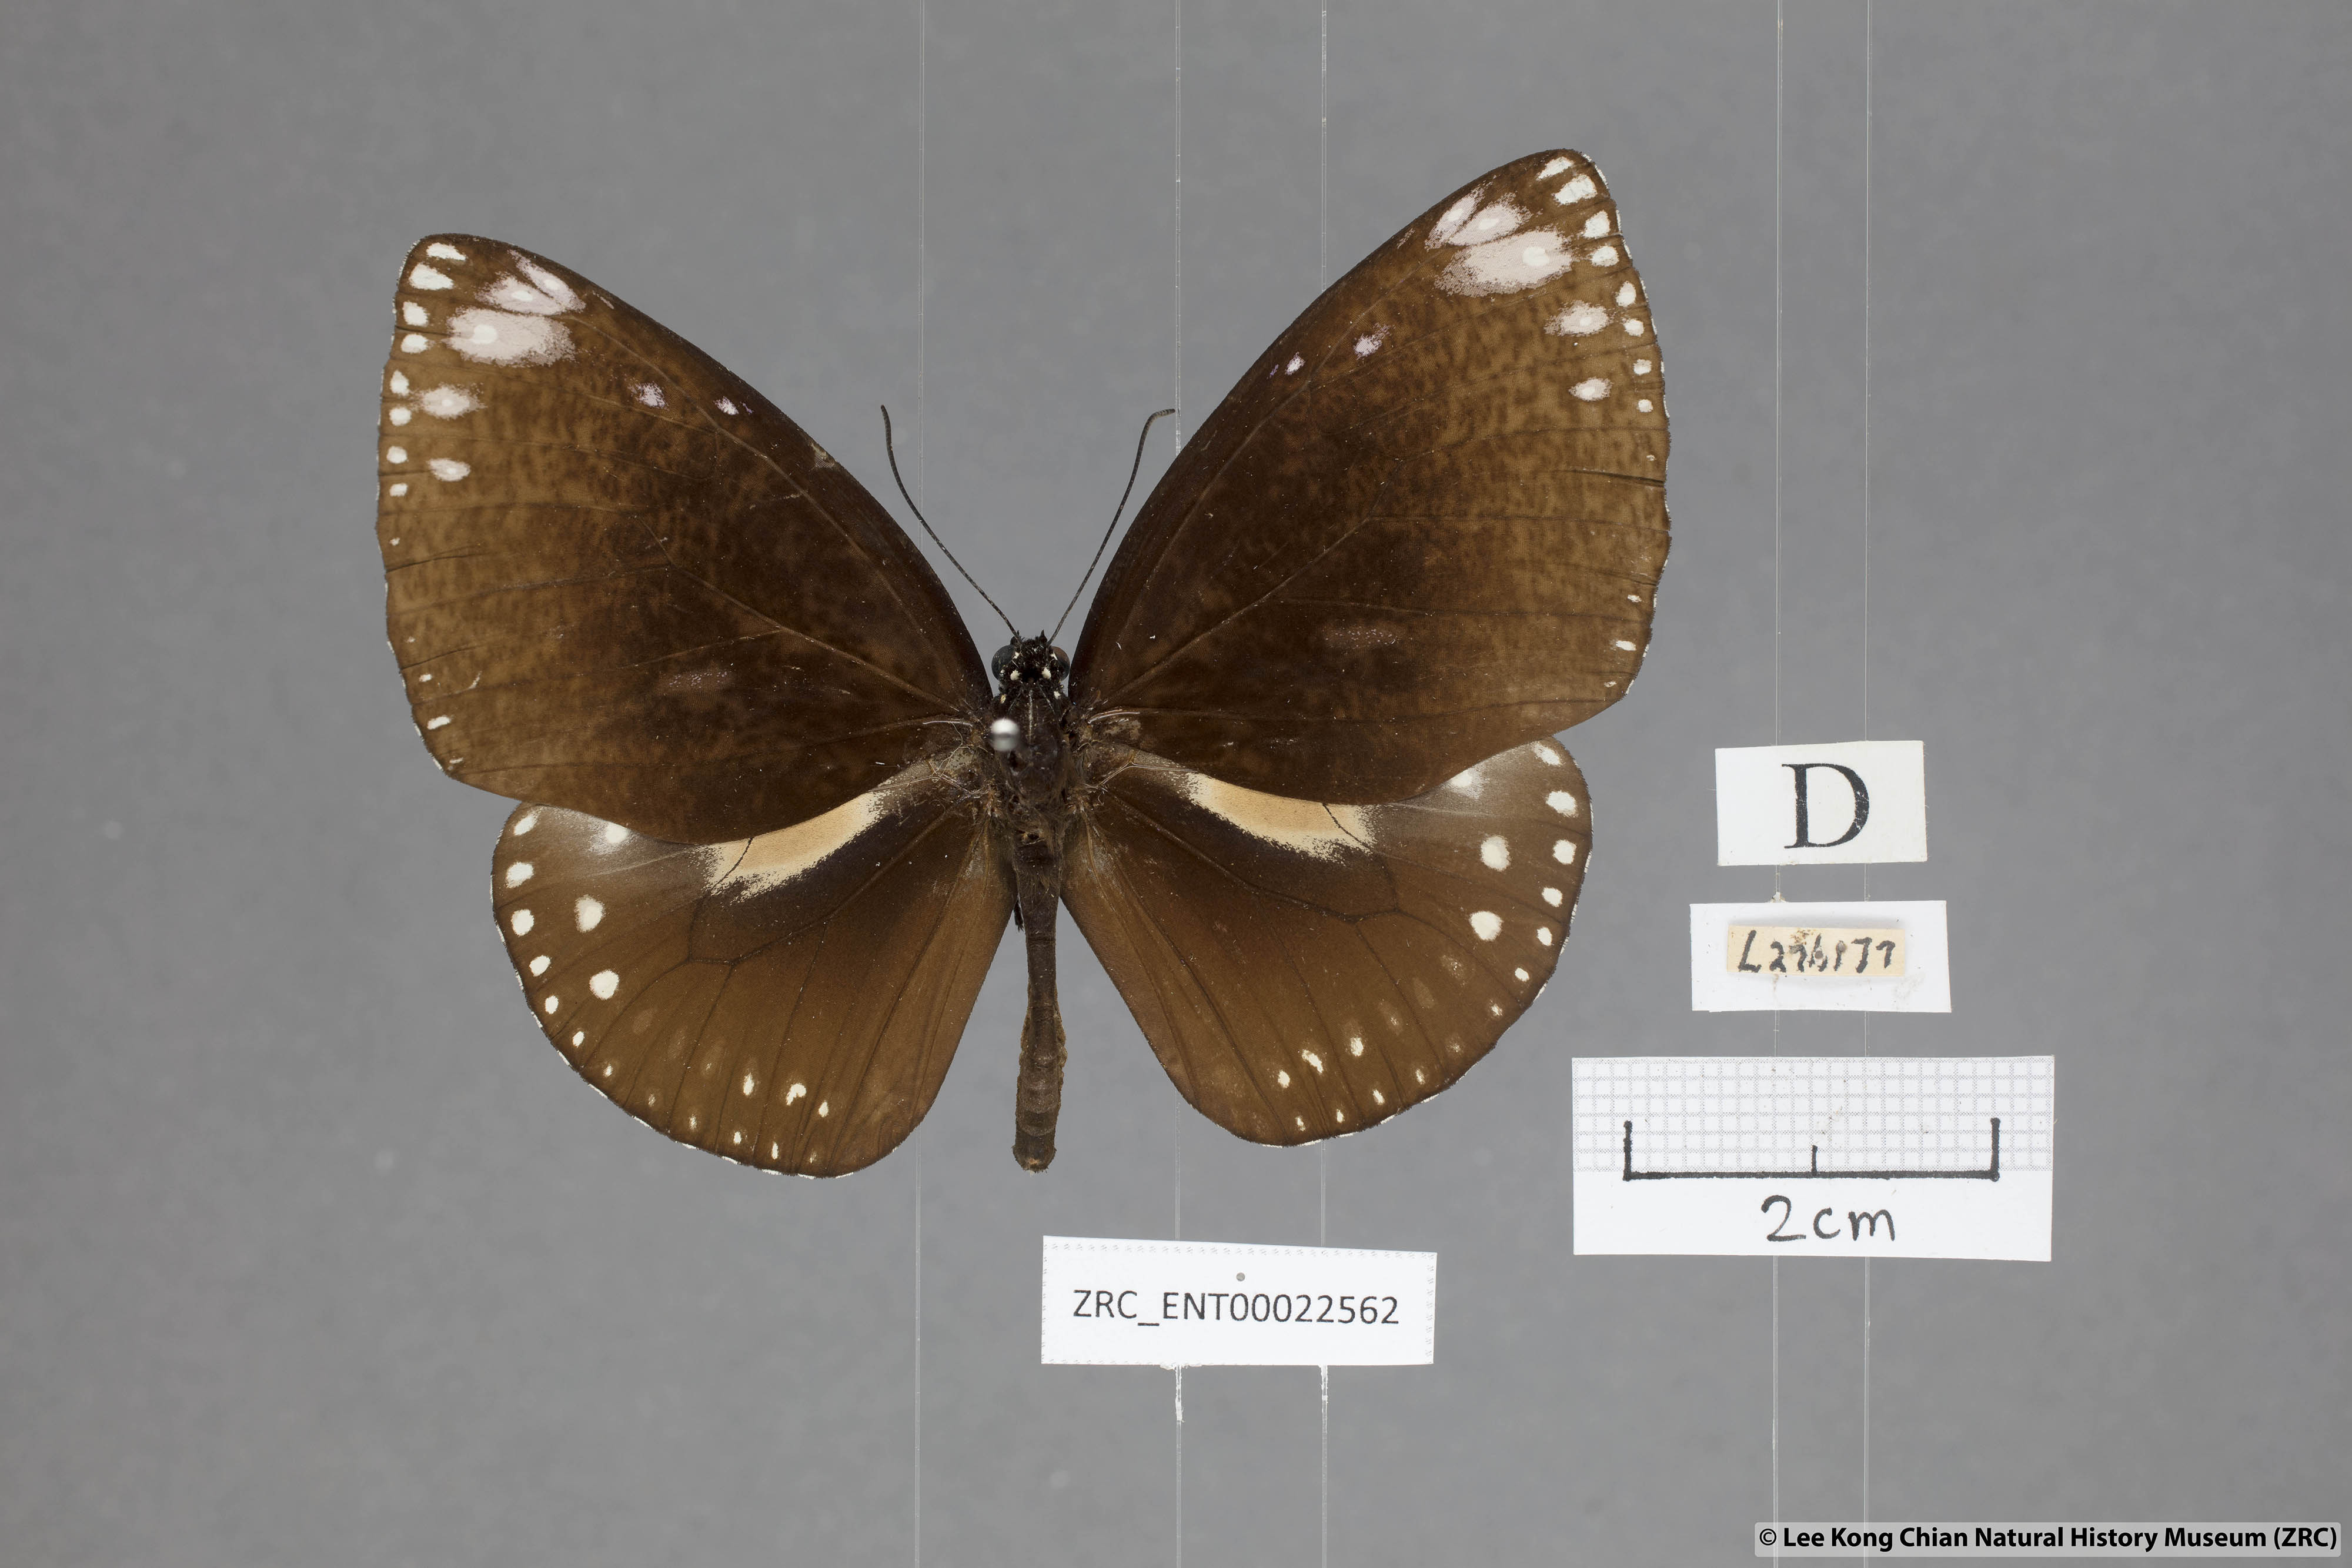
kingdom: Animalia
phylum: Arthropoda
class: Insecta
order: Lepidoptera
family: Nymphalidae
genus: Euploea
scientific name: Euploea klugii
